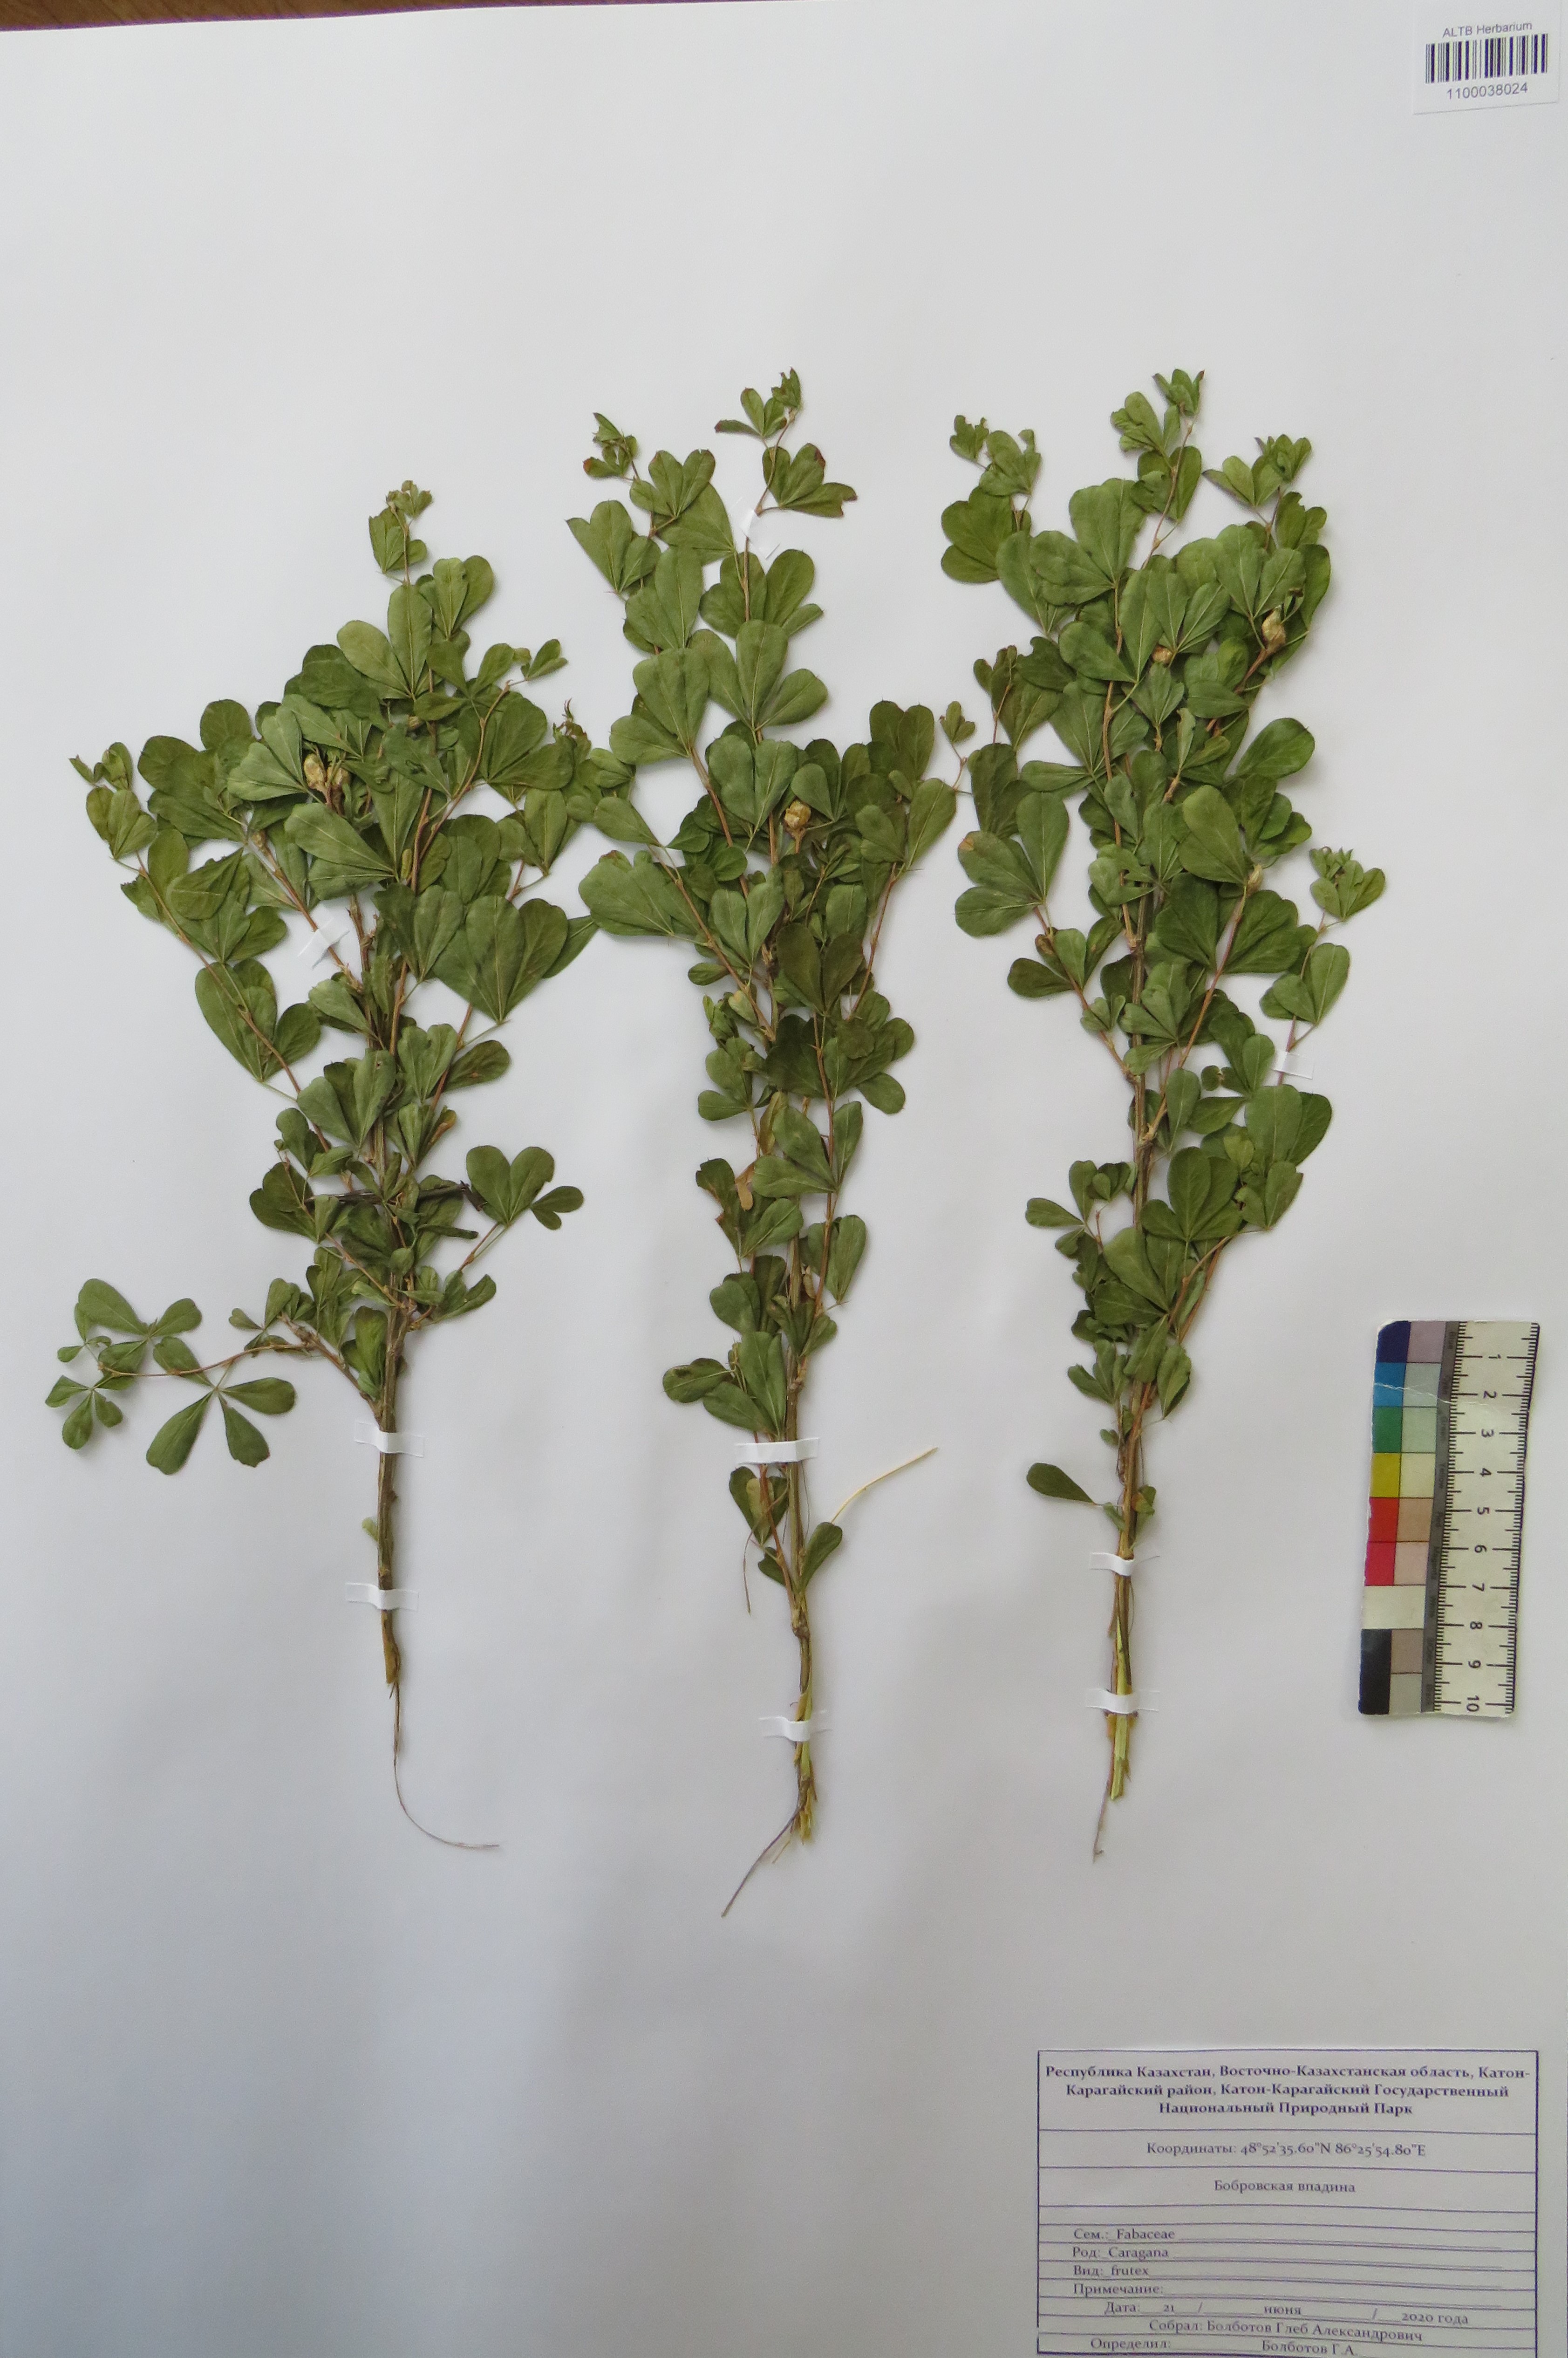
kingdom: Plantae
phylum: Tracheophyta
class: Magnoliopsida
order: Fabales
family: Fabaceae
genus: Caragana
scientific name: Caragana frutex
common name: Russian peashrub
